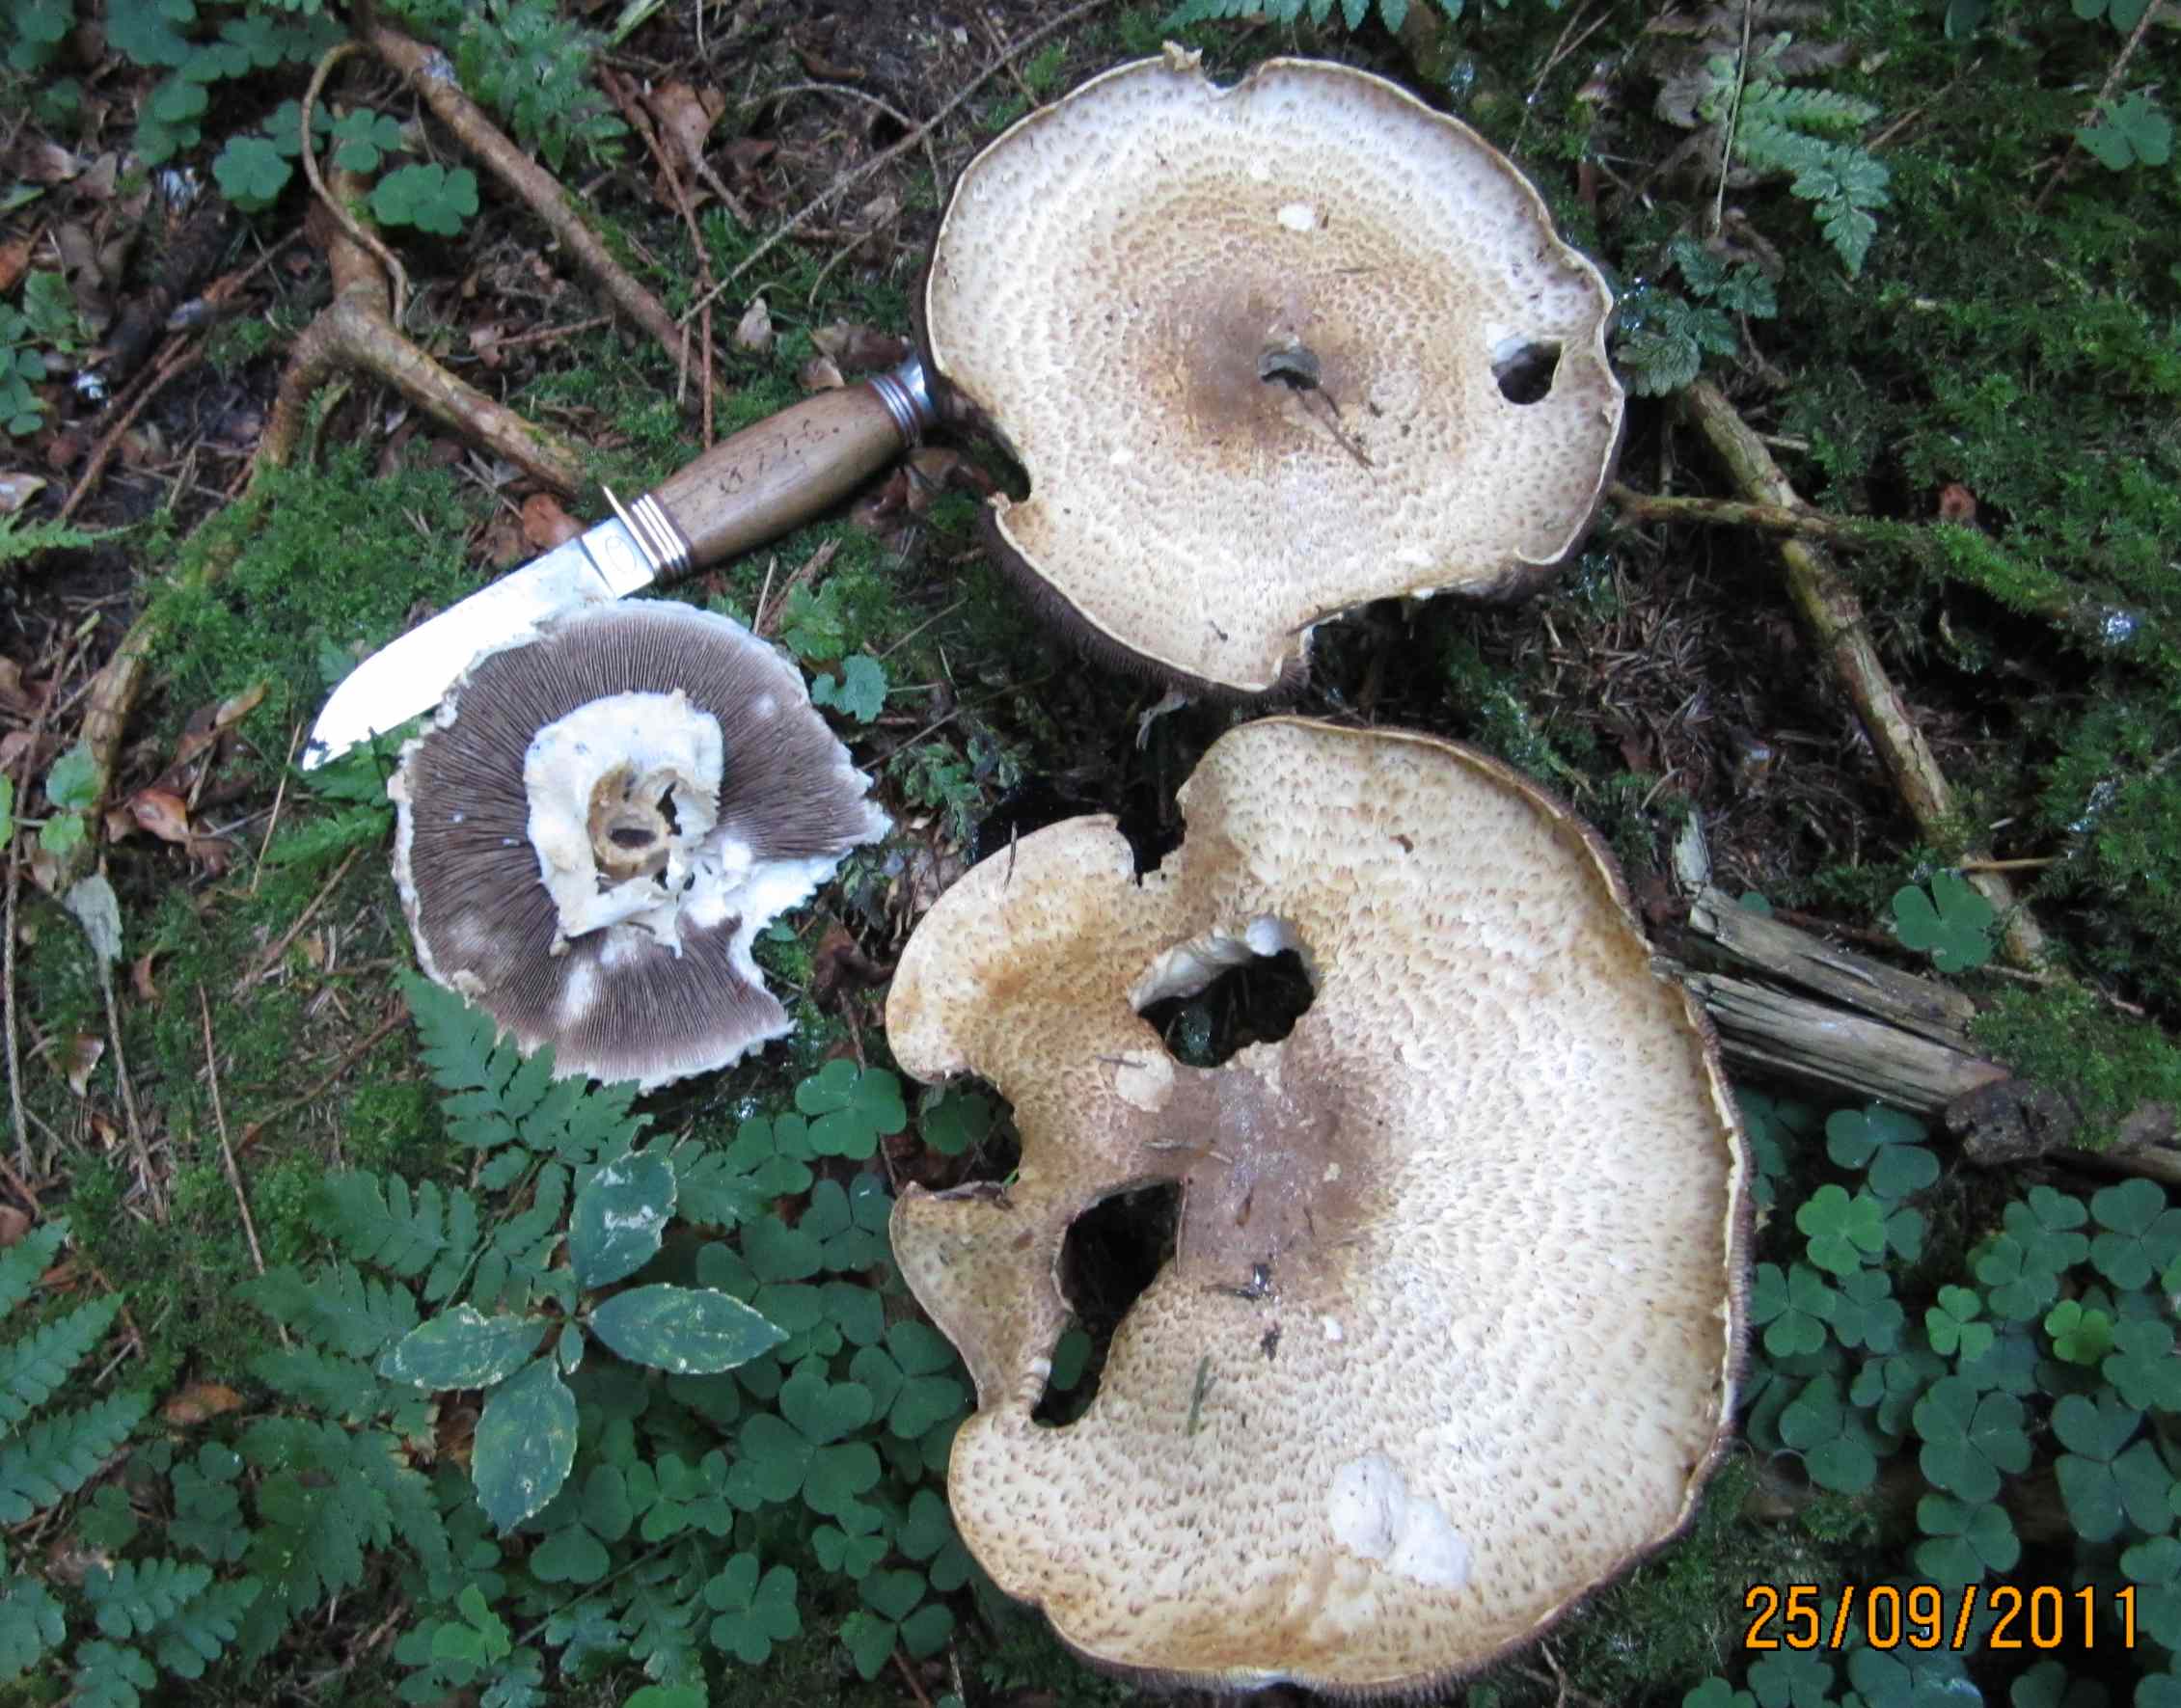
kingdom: Fungi
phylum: Basidiomycota
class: Agaricomycetes
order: Agaricales
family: Agaricaceae
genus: Agaricus
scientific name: Agaricus augustus
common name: prægtig champignon
